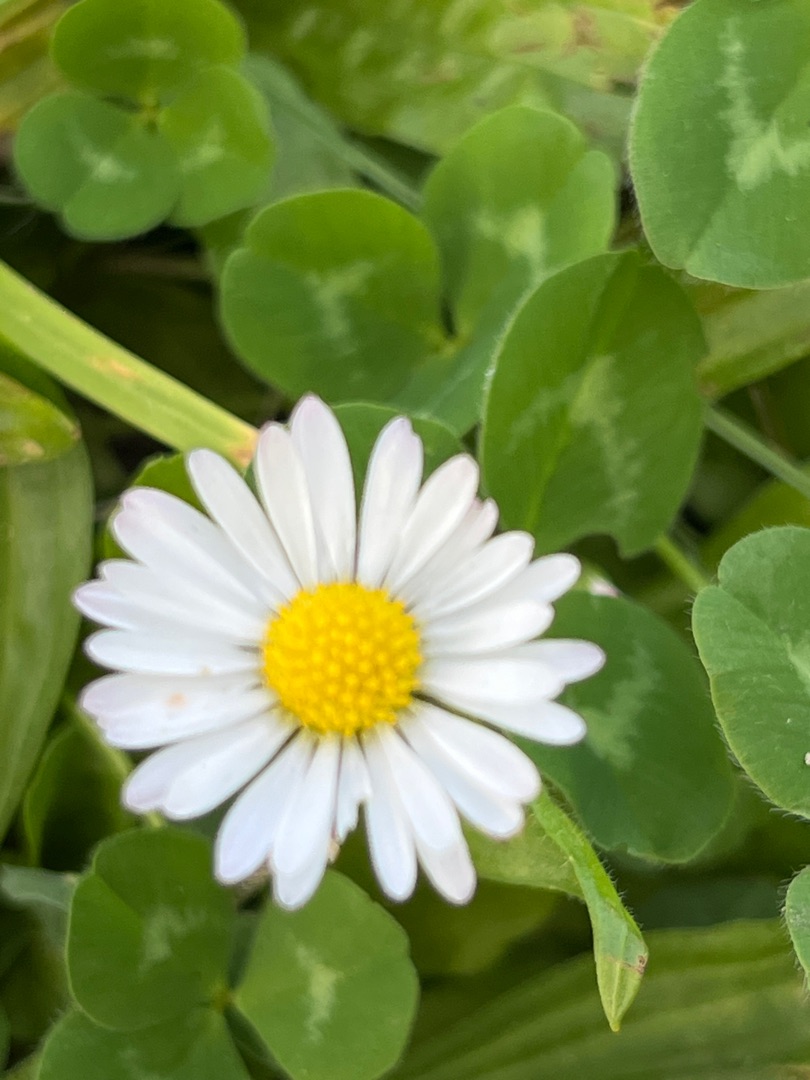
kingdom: Plantae
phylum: Tracheophyta
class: Magnoliopsida
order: Asterales
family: Asteraceae
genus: Bellis
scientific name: Bellis perennis
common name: Tusindfryd
